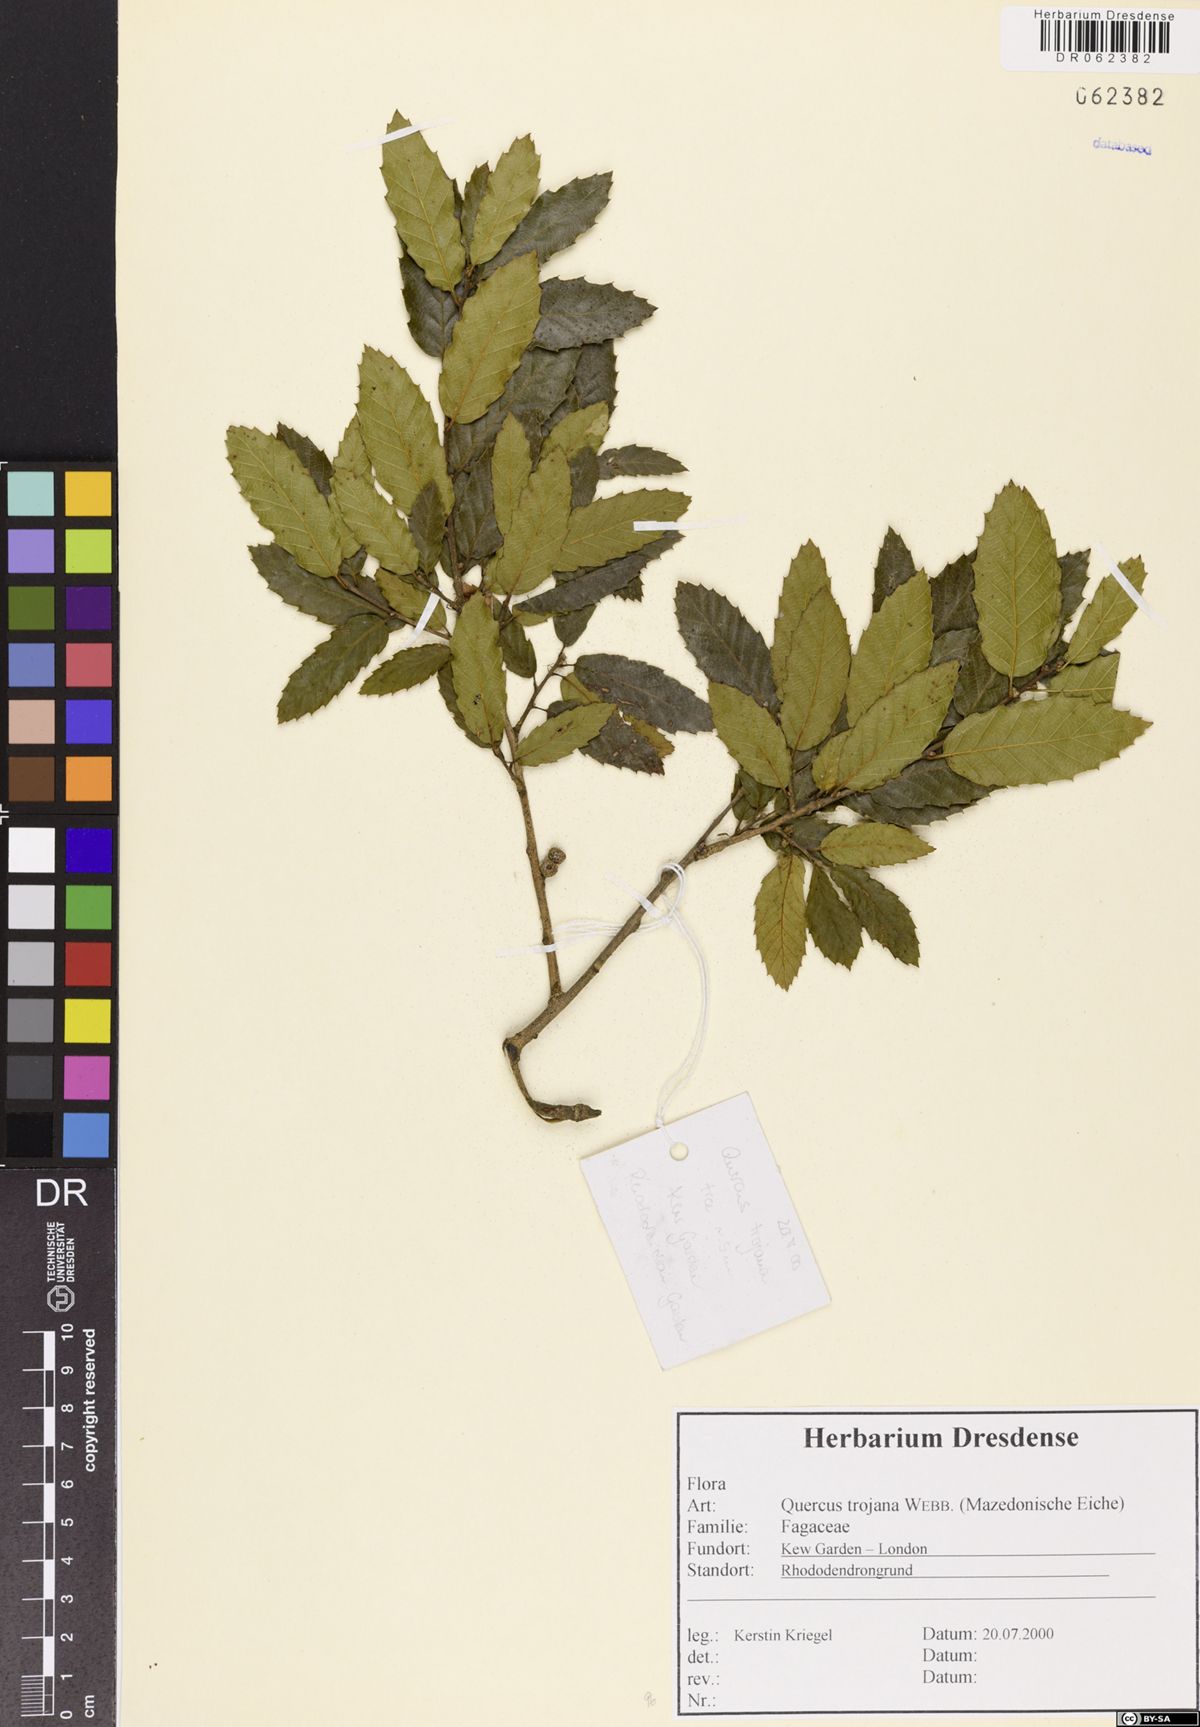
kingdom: Plantae
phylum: Tracheophyta
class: Magnoliopsida
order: Fagales
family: Fagaceae
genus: Quercus
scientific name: Quercus trojana
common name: Macedonian oak
